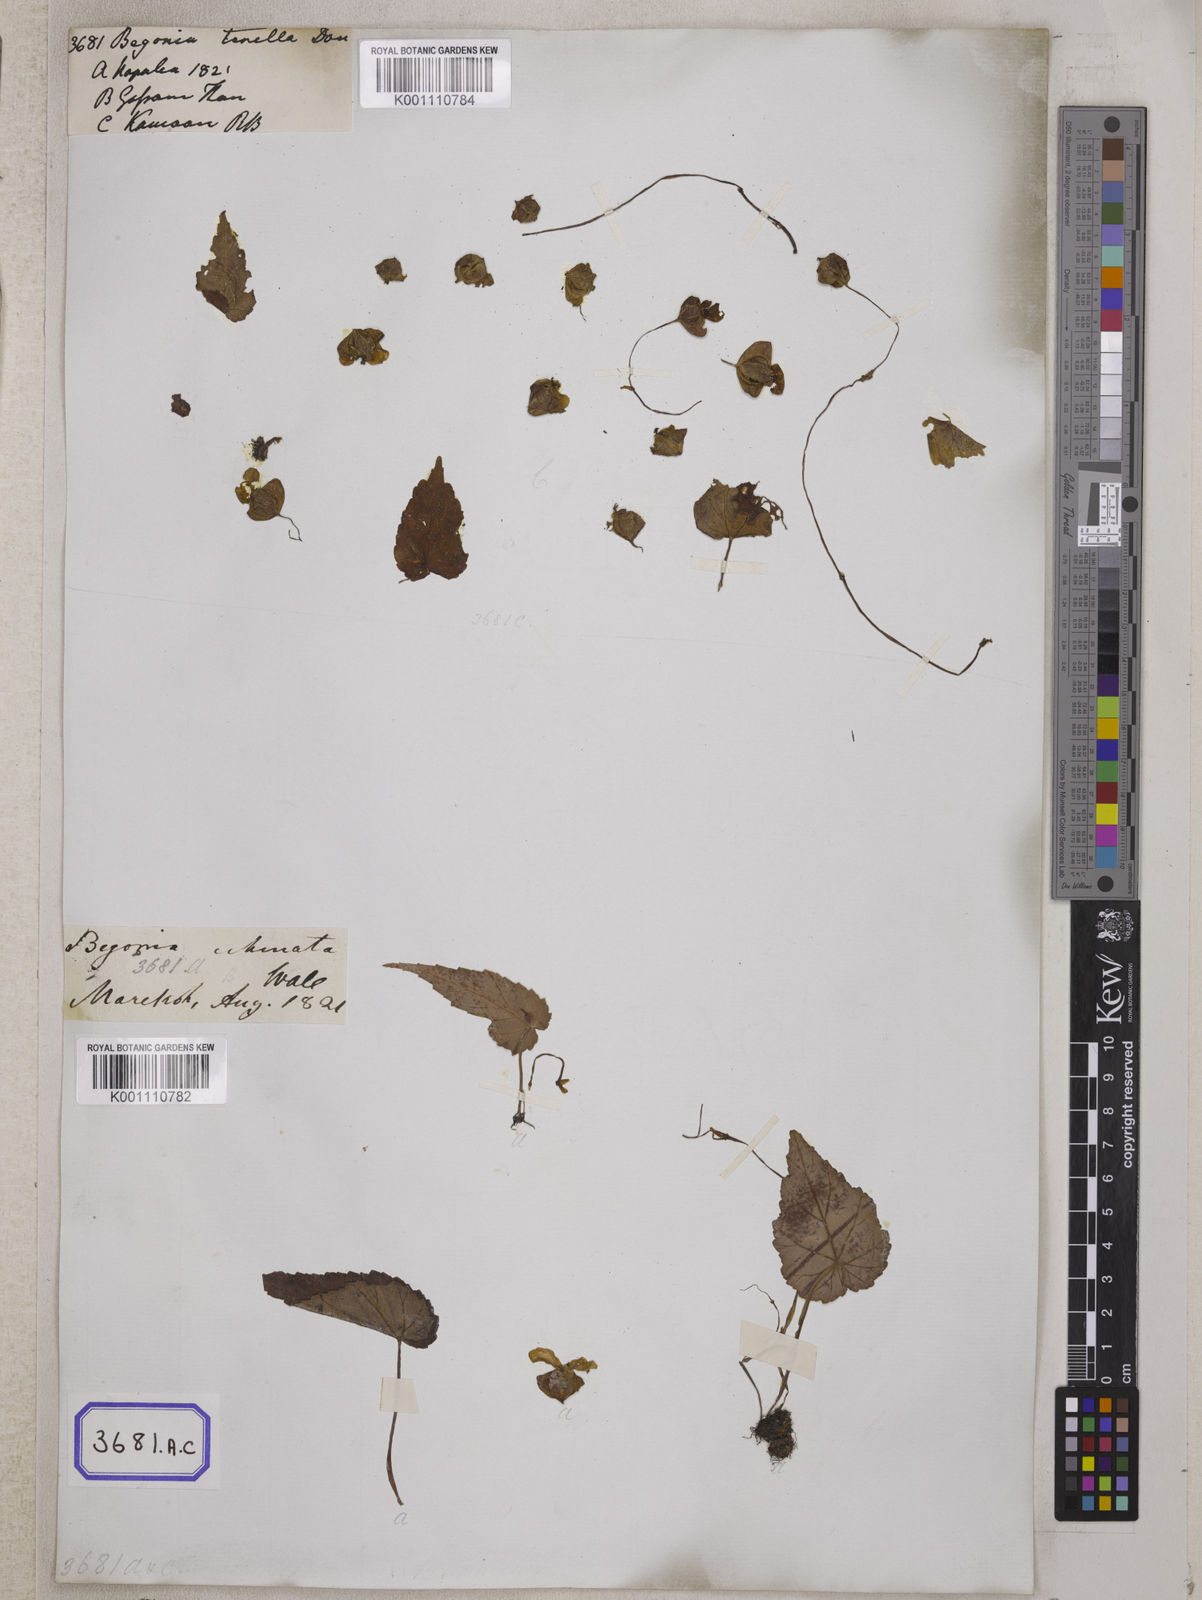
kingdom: Plantae
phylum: Tracheophyta
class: Magnoliopsida
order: Cucurbitales
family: Begoniaceae
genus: Begonia
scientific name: Begonia dioica
